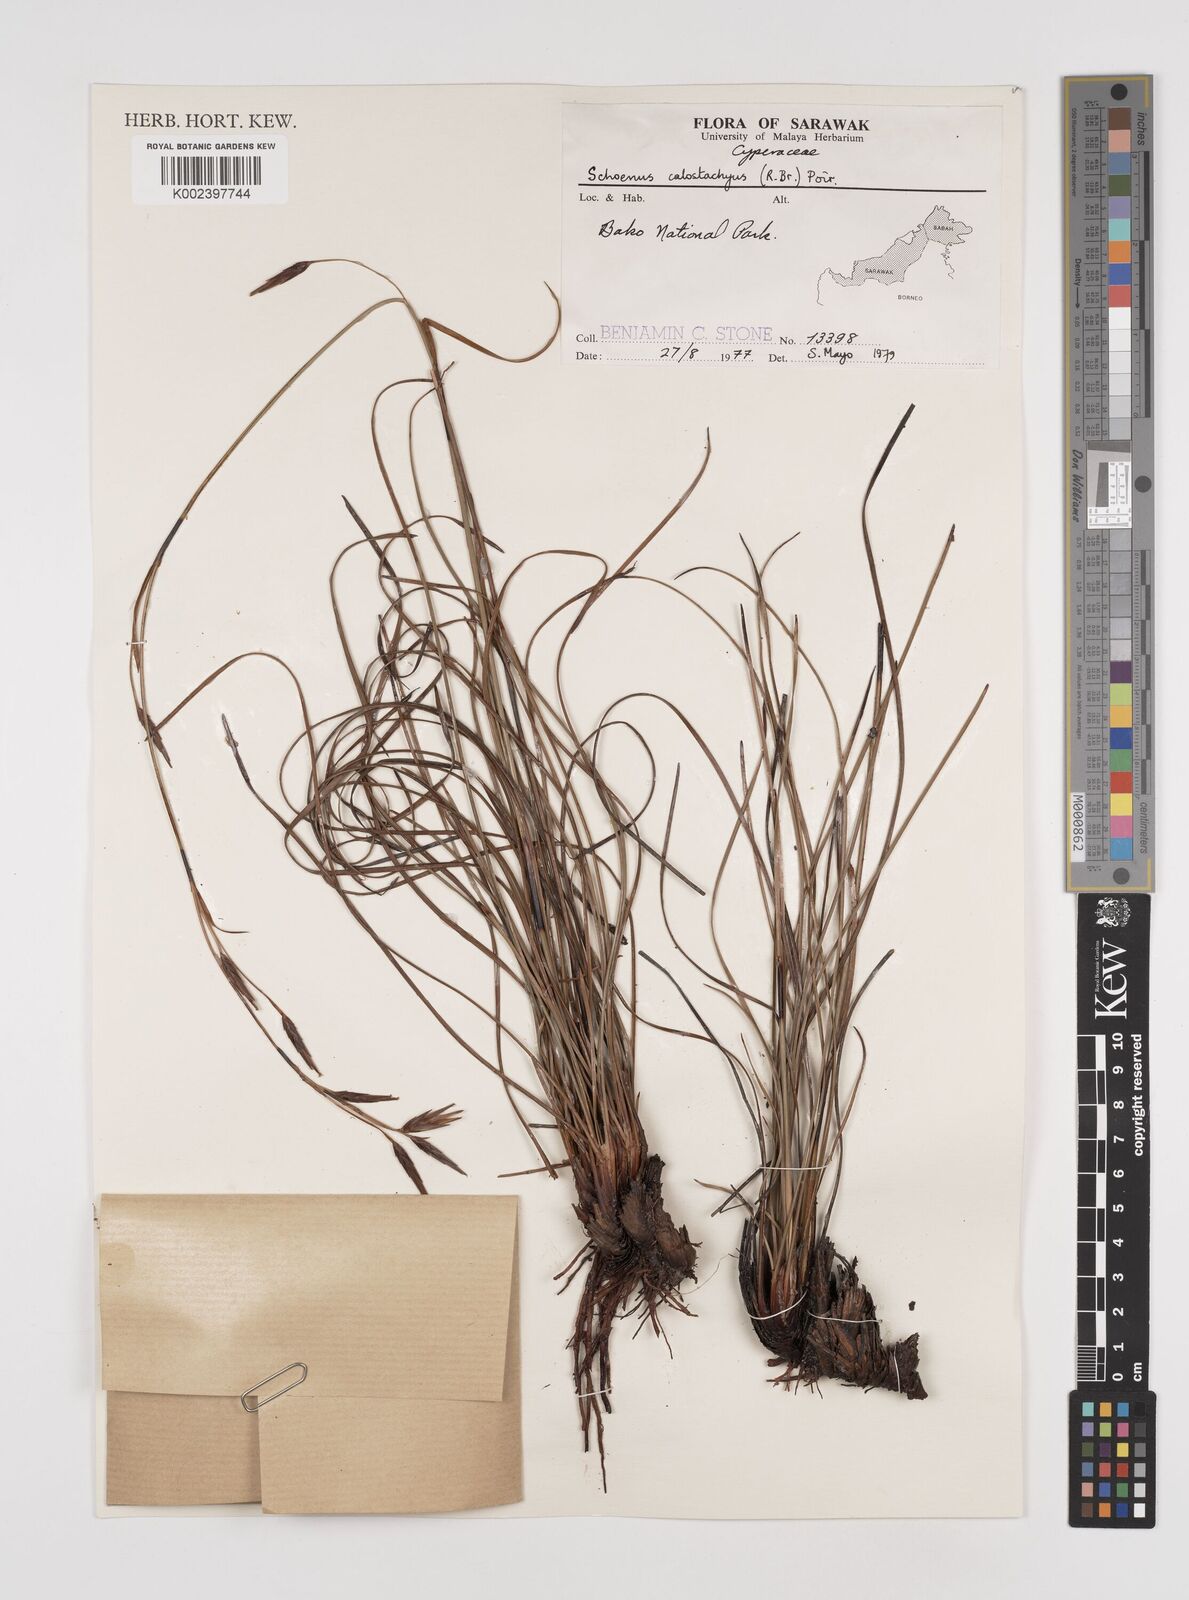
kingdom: Plantae
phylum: Tracheophyta
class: Liliopsida
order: Poales
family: Cyperaceae
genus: Schoenus
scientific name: Schoenus calostachyus
